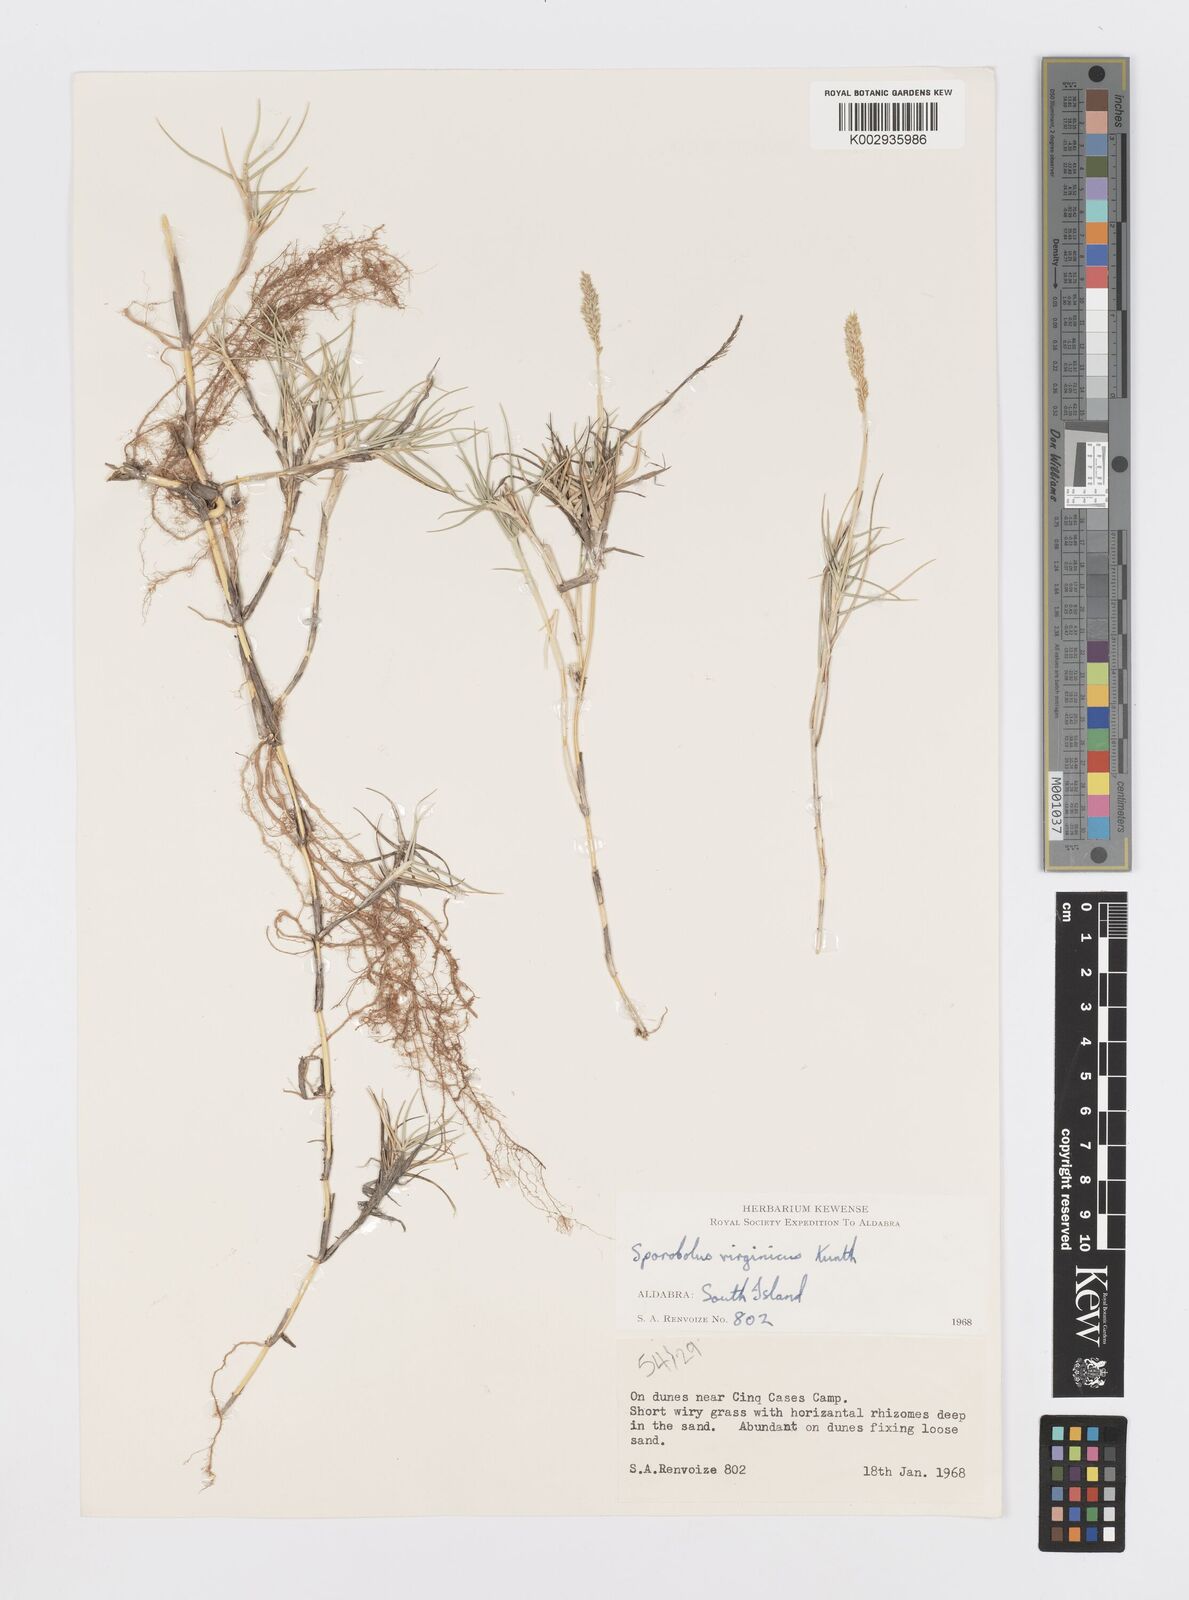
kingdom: Plantae
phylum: Tracheophyta
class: Liliopsida
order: Poales
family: Poaceae
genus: Sporobolus
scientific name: Sporobolus virginicus
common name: Beach dropseed
